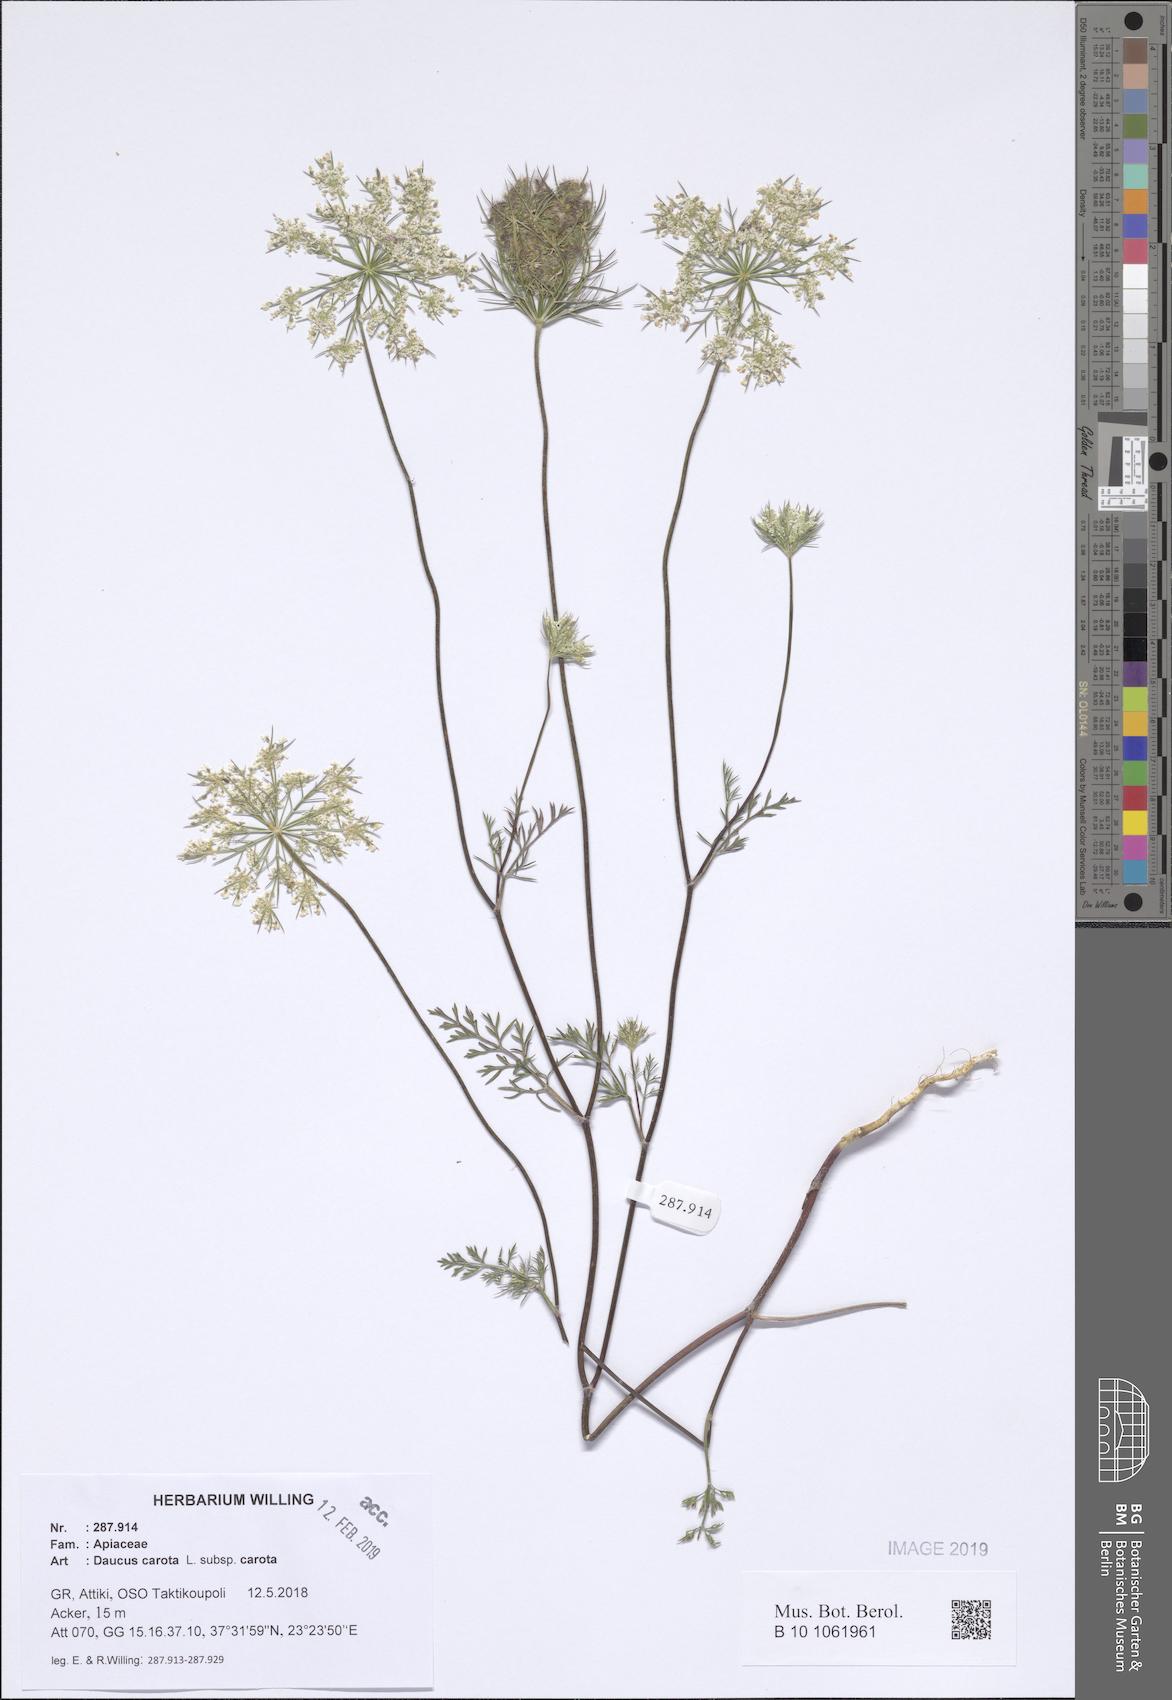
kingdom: Plantae
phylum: Tracheophyta
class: Magnoliopsida
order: Apiales
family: Apiaceae
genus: Daucus
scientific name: Daucus carota
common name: Wild carrot
